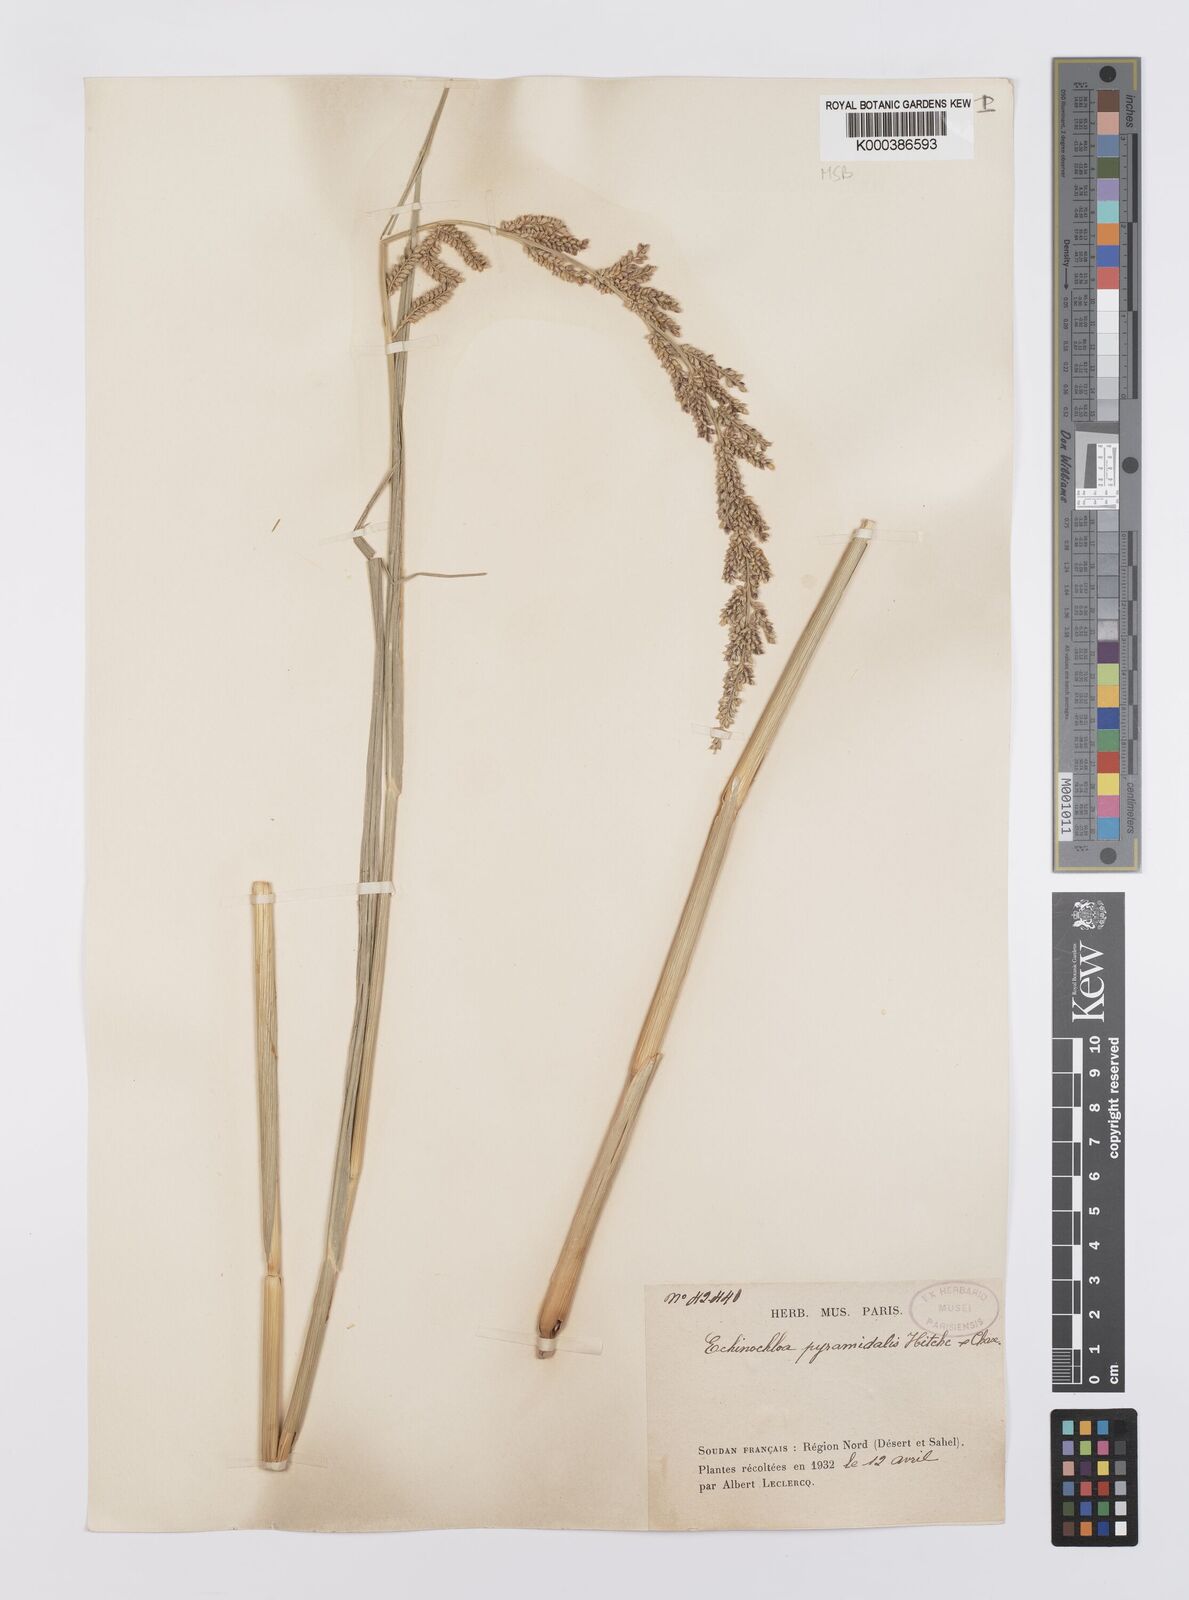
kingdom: Plantae
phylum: Tracheophyta
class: Liliopsida
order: Poales
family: Poaceae
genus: Echinochloa
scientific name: Echinochloa pyramidalis
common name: Antelope grass
